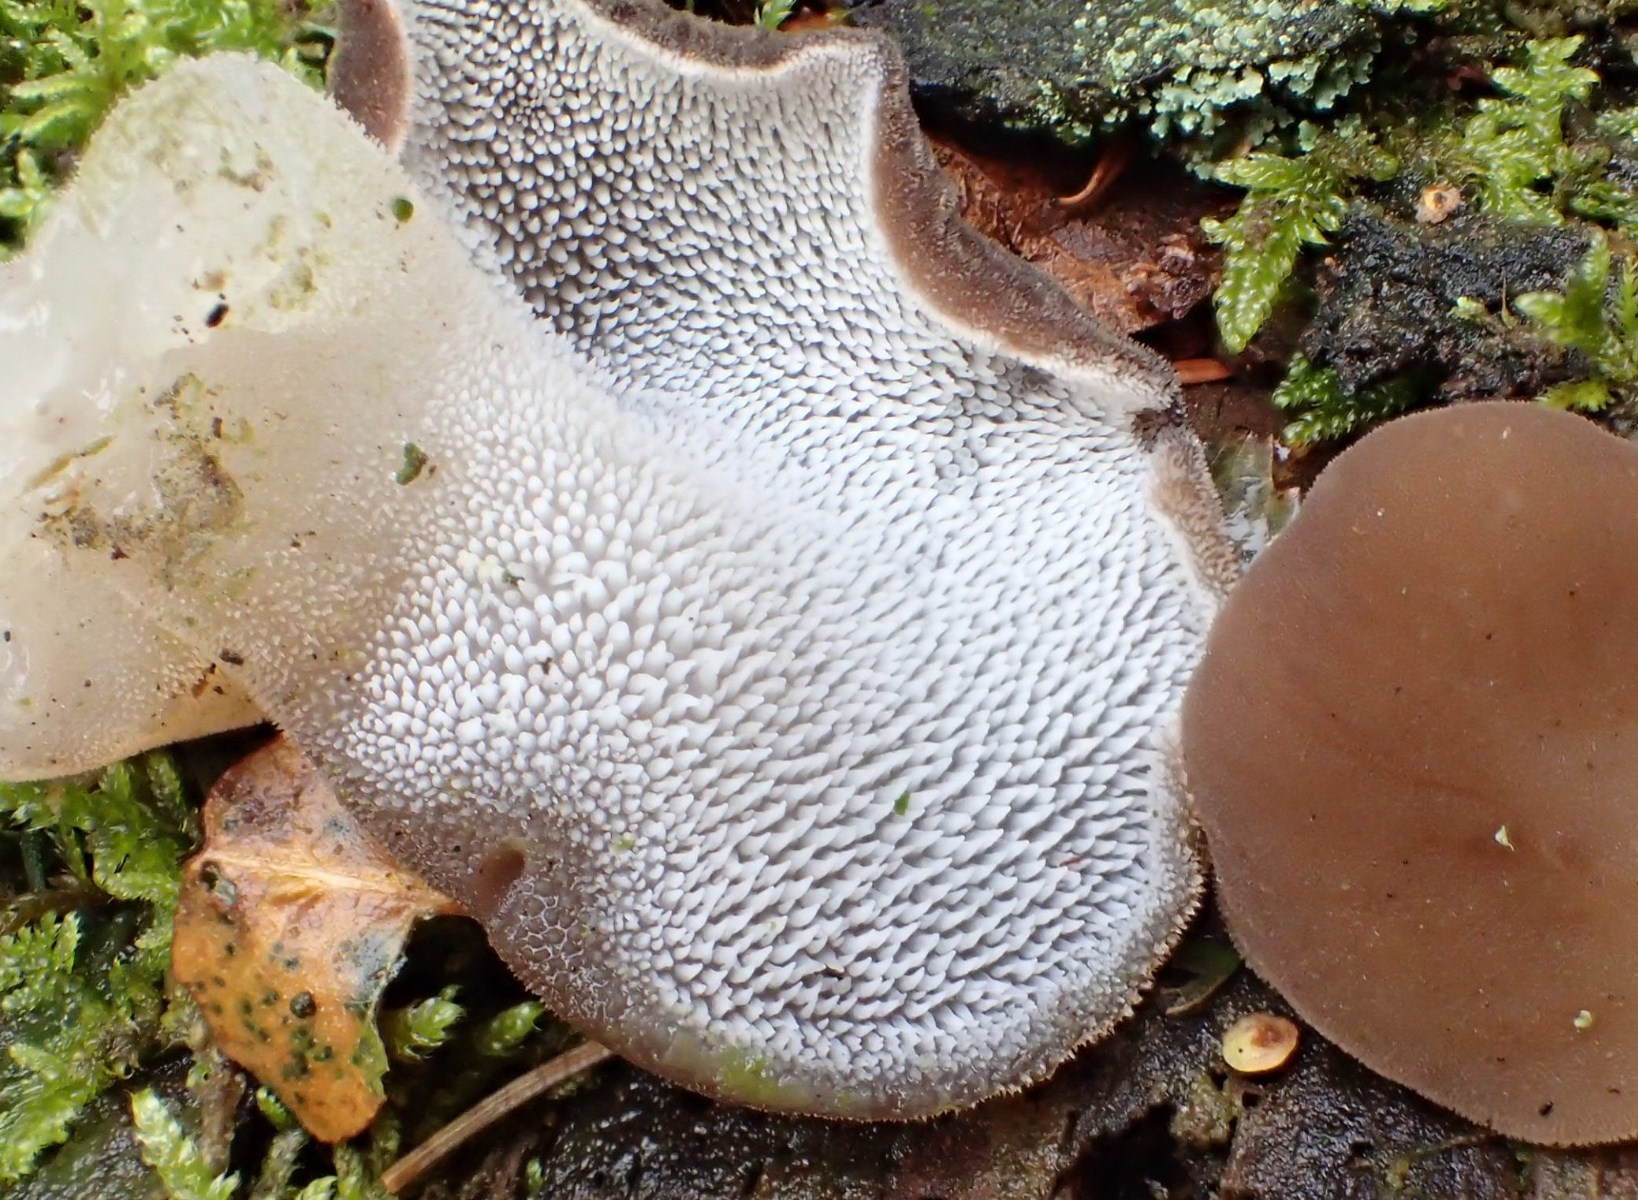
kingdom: Fungi
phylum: Basidiomycota
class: Agaricomycetes
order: Auriculariales
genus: Pseudohydnum
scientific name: Pseudohydnum gelatinosum
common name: bævretand
